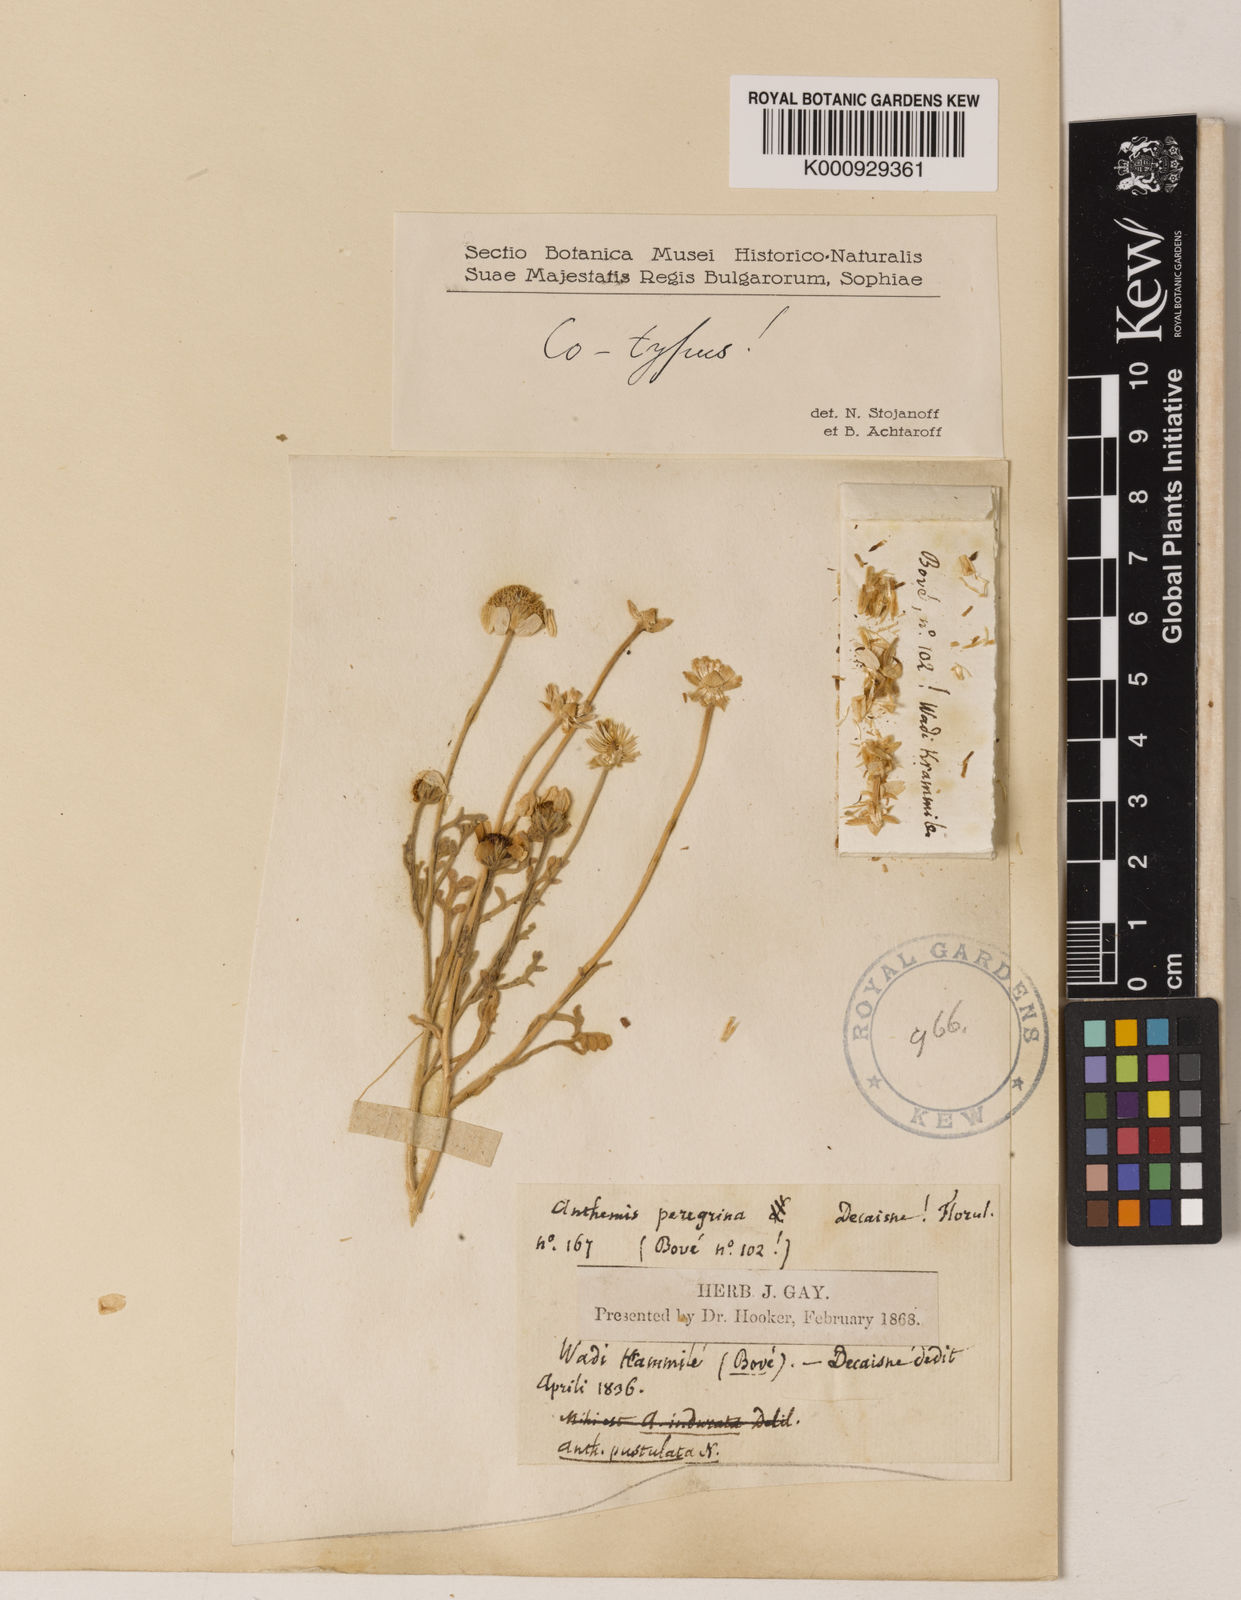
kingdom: Plantae
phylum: Tracheophyta
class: Magnoliopsida
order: Asterales
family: Asteraceae
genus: Anthemis
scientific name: Anthemis melampodina
